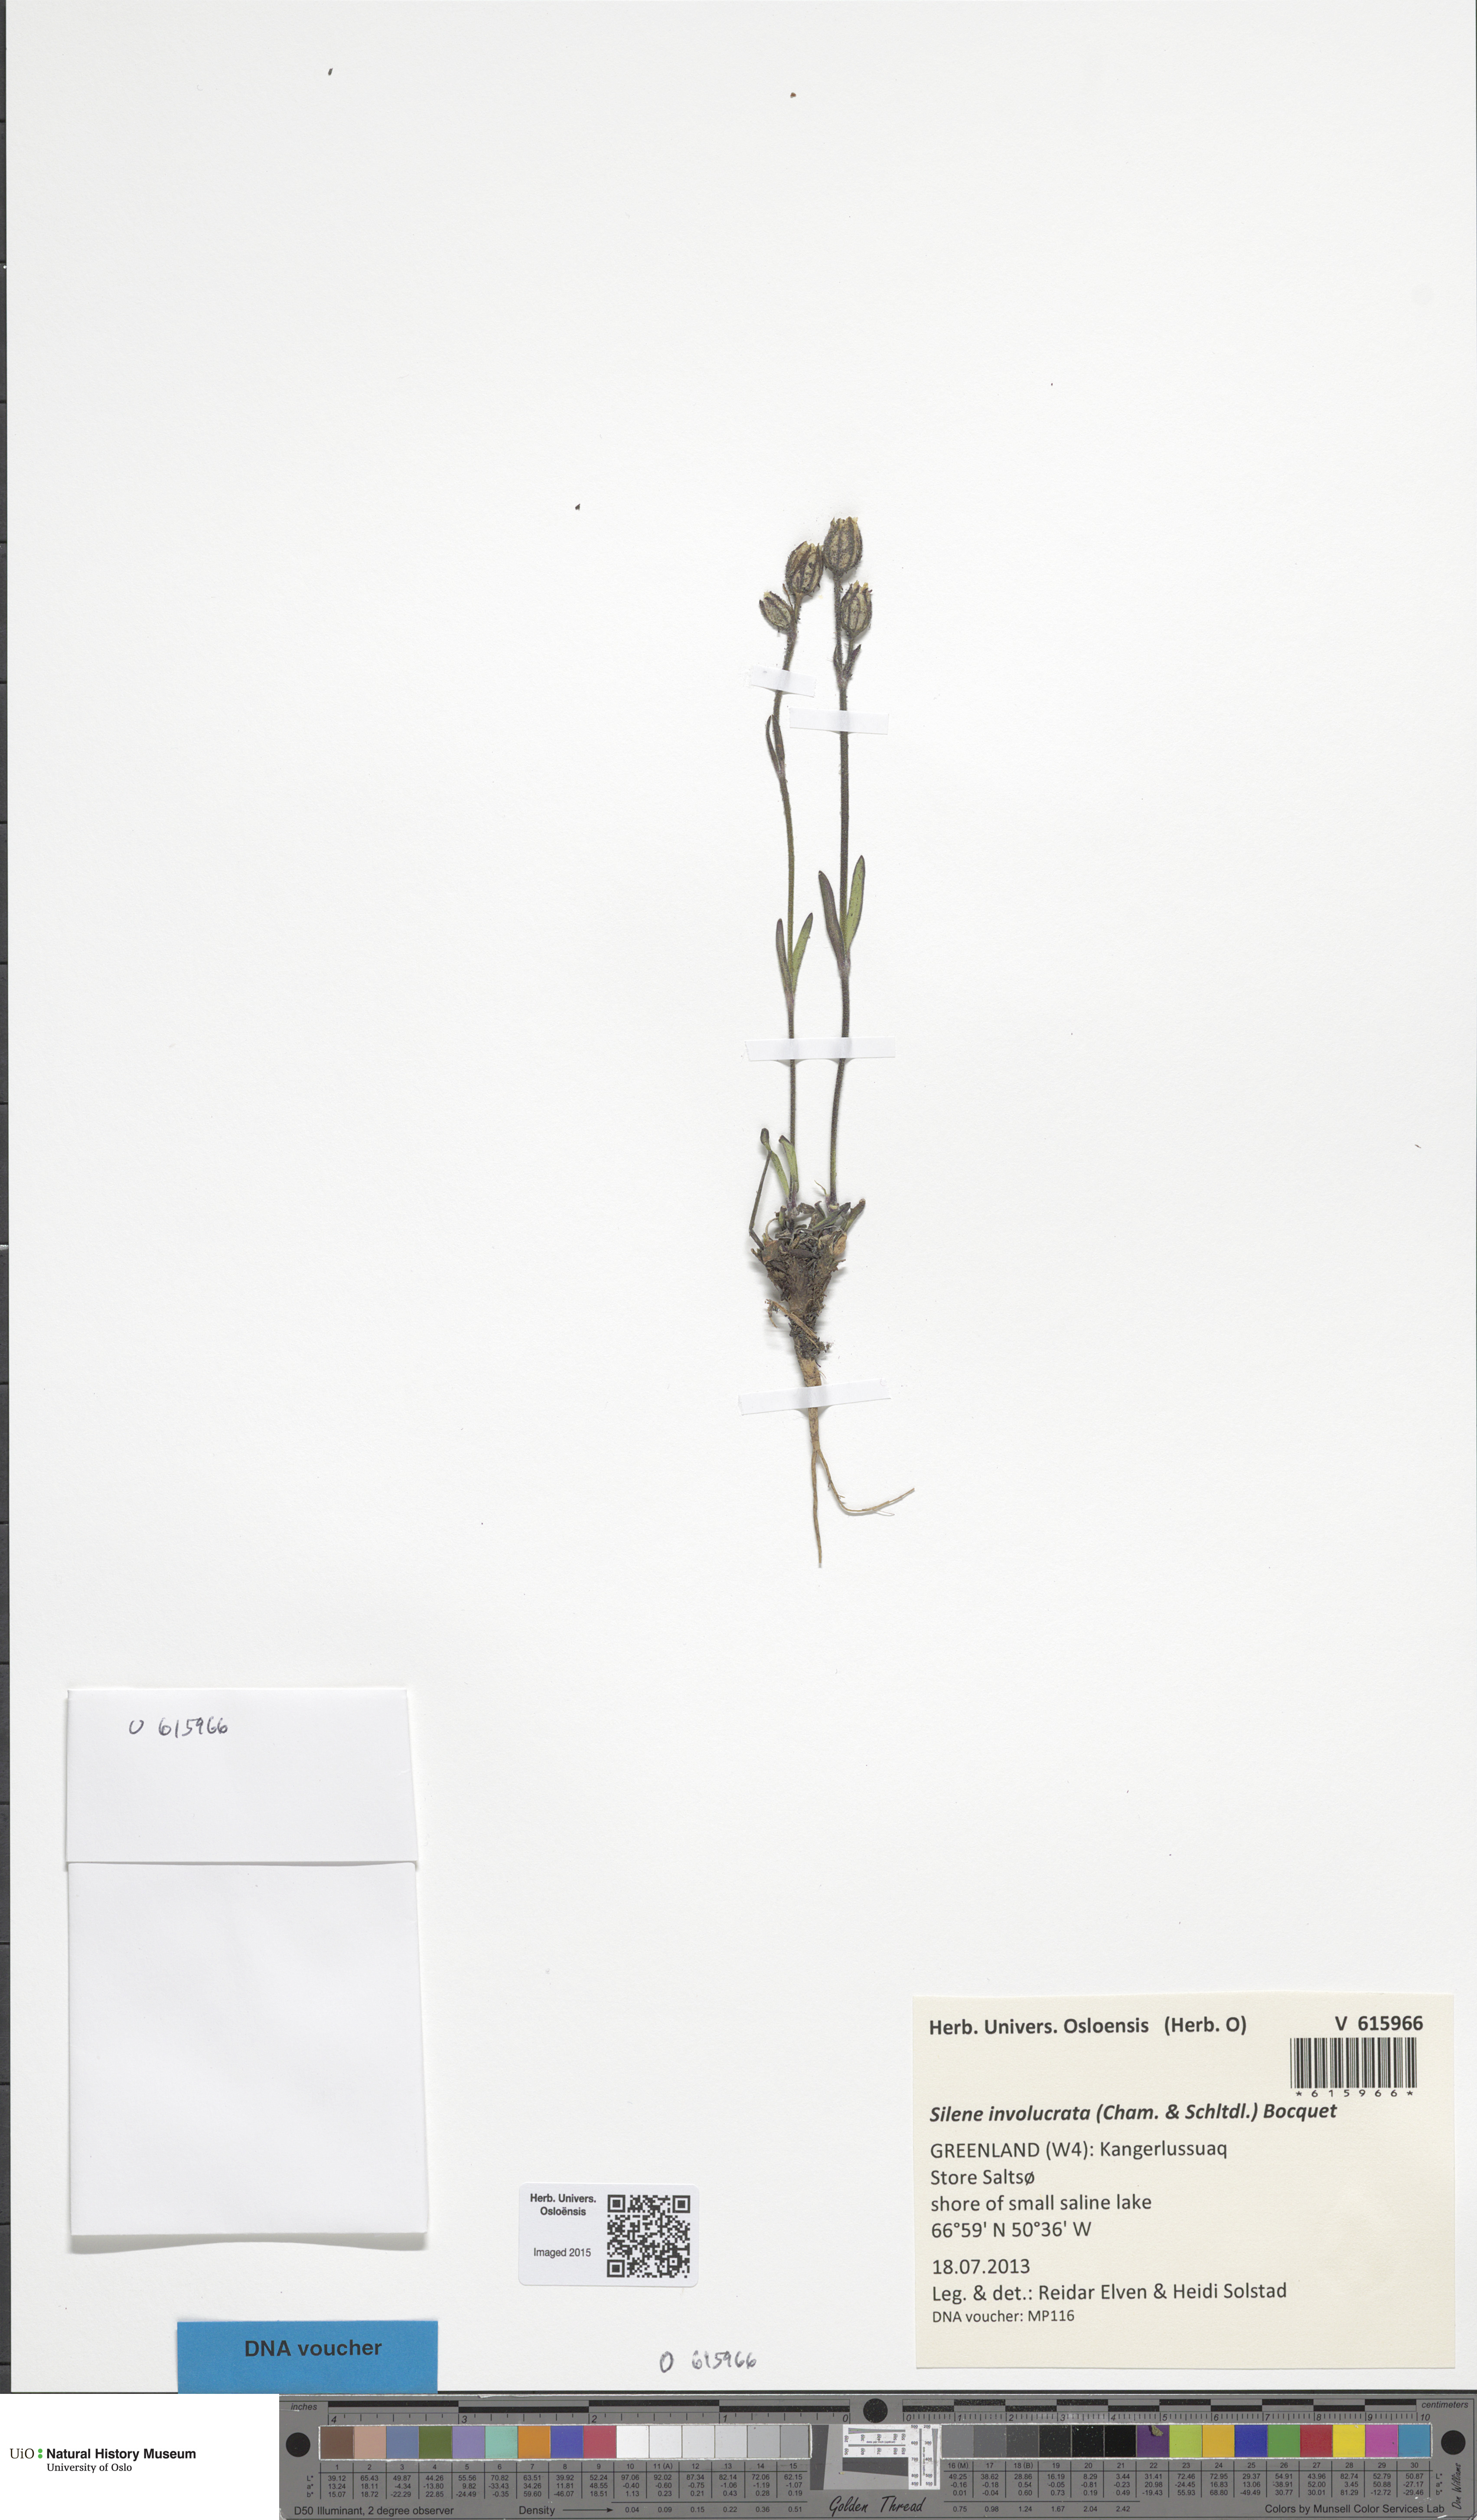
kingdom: Plantae
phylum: Tracheophyta
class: Magnoliopsida
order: Caryophyllales
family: Caryophyllaceae
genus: Silene
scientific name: Silene involucrata
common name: Greater arctic campion
